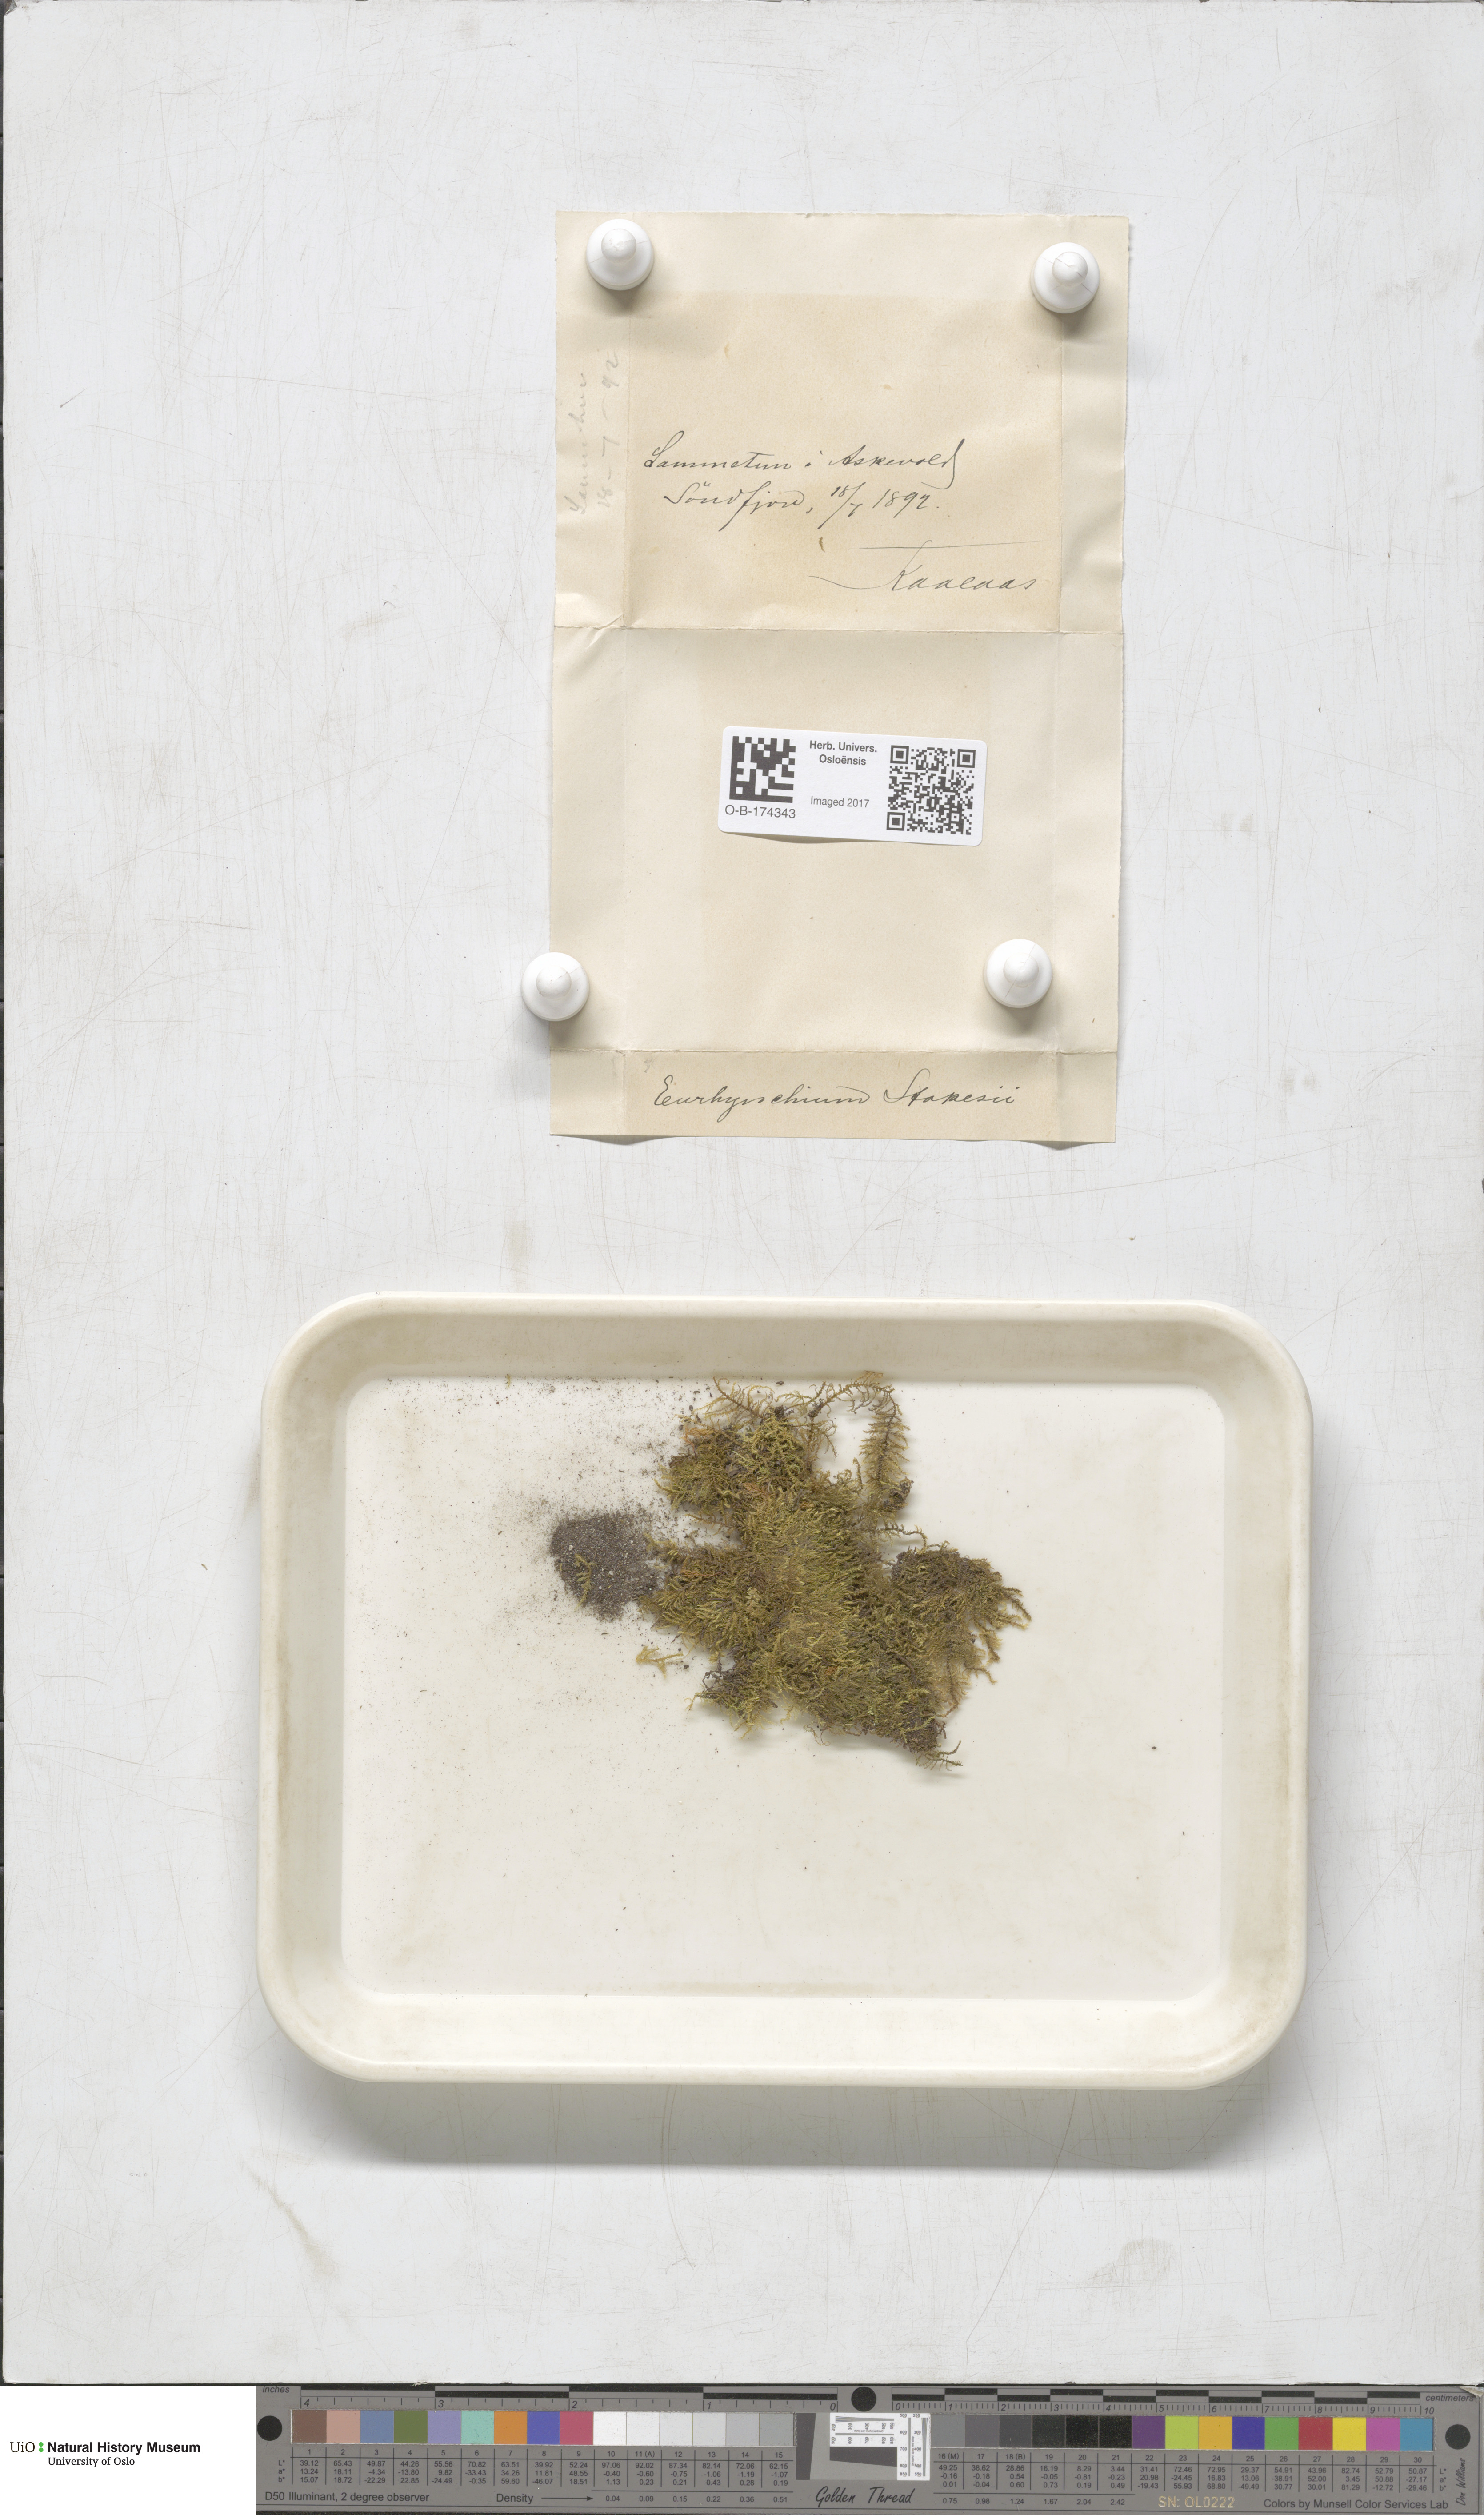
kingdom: Plantae
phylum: Bryophyta
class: Bryopsida
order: Hypnales
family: Brachytheciaceae
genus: Kindbergia
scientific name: Kindbergia praelonga
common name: Slender beaked moss
